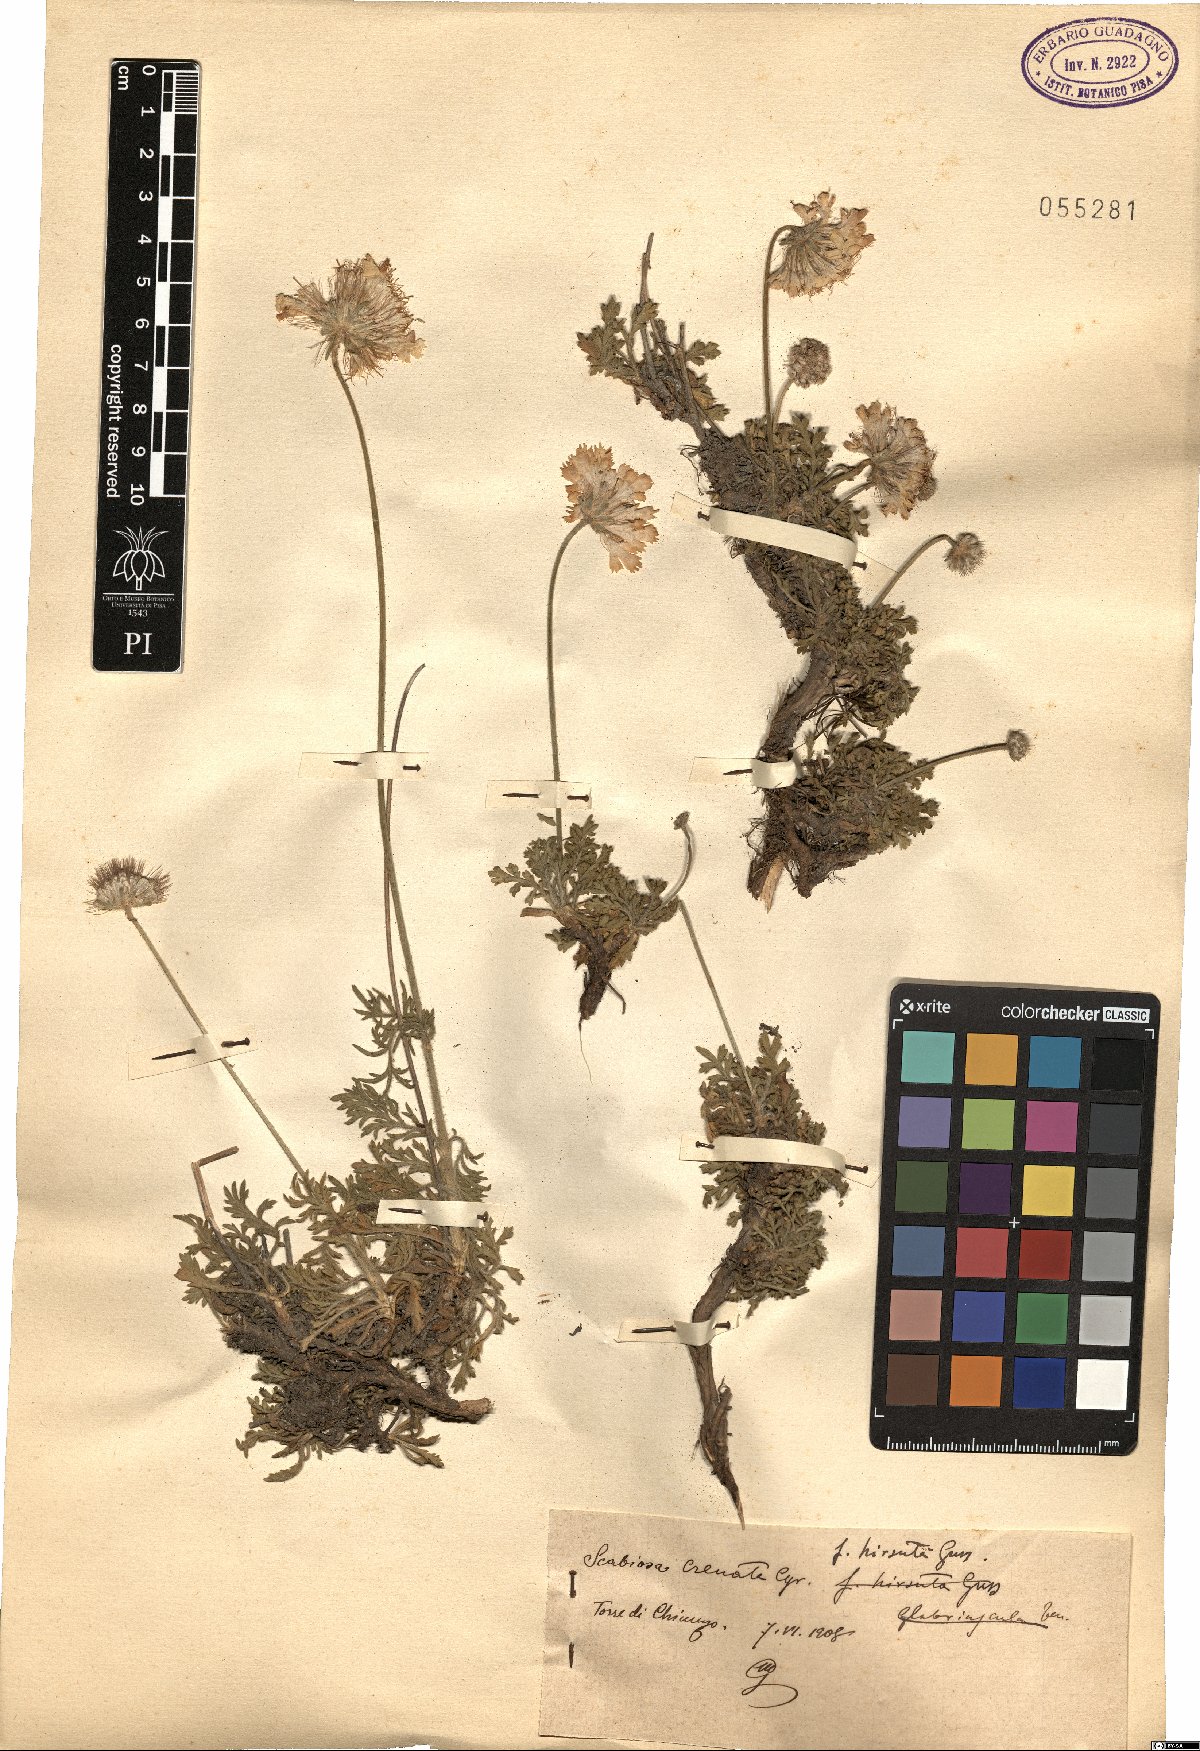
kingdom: Plantae
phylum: Tracheophyta
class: Magnoliopsida
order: Dipsacales
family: Caprifoliaceae
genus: Lomelosia
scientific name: Lomelosia crenata
